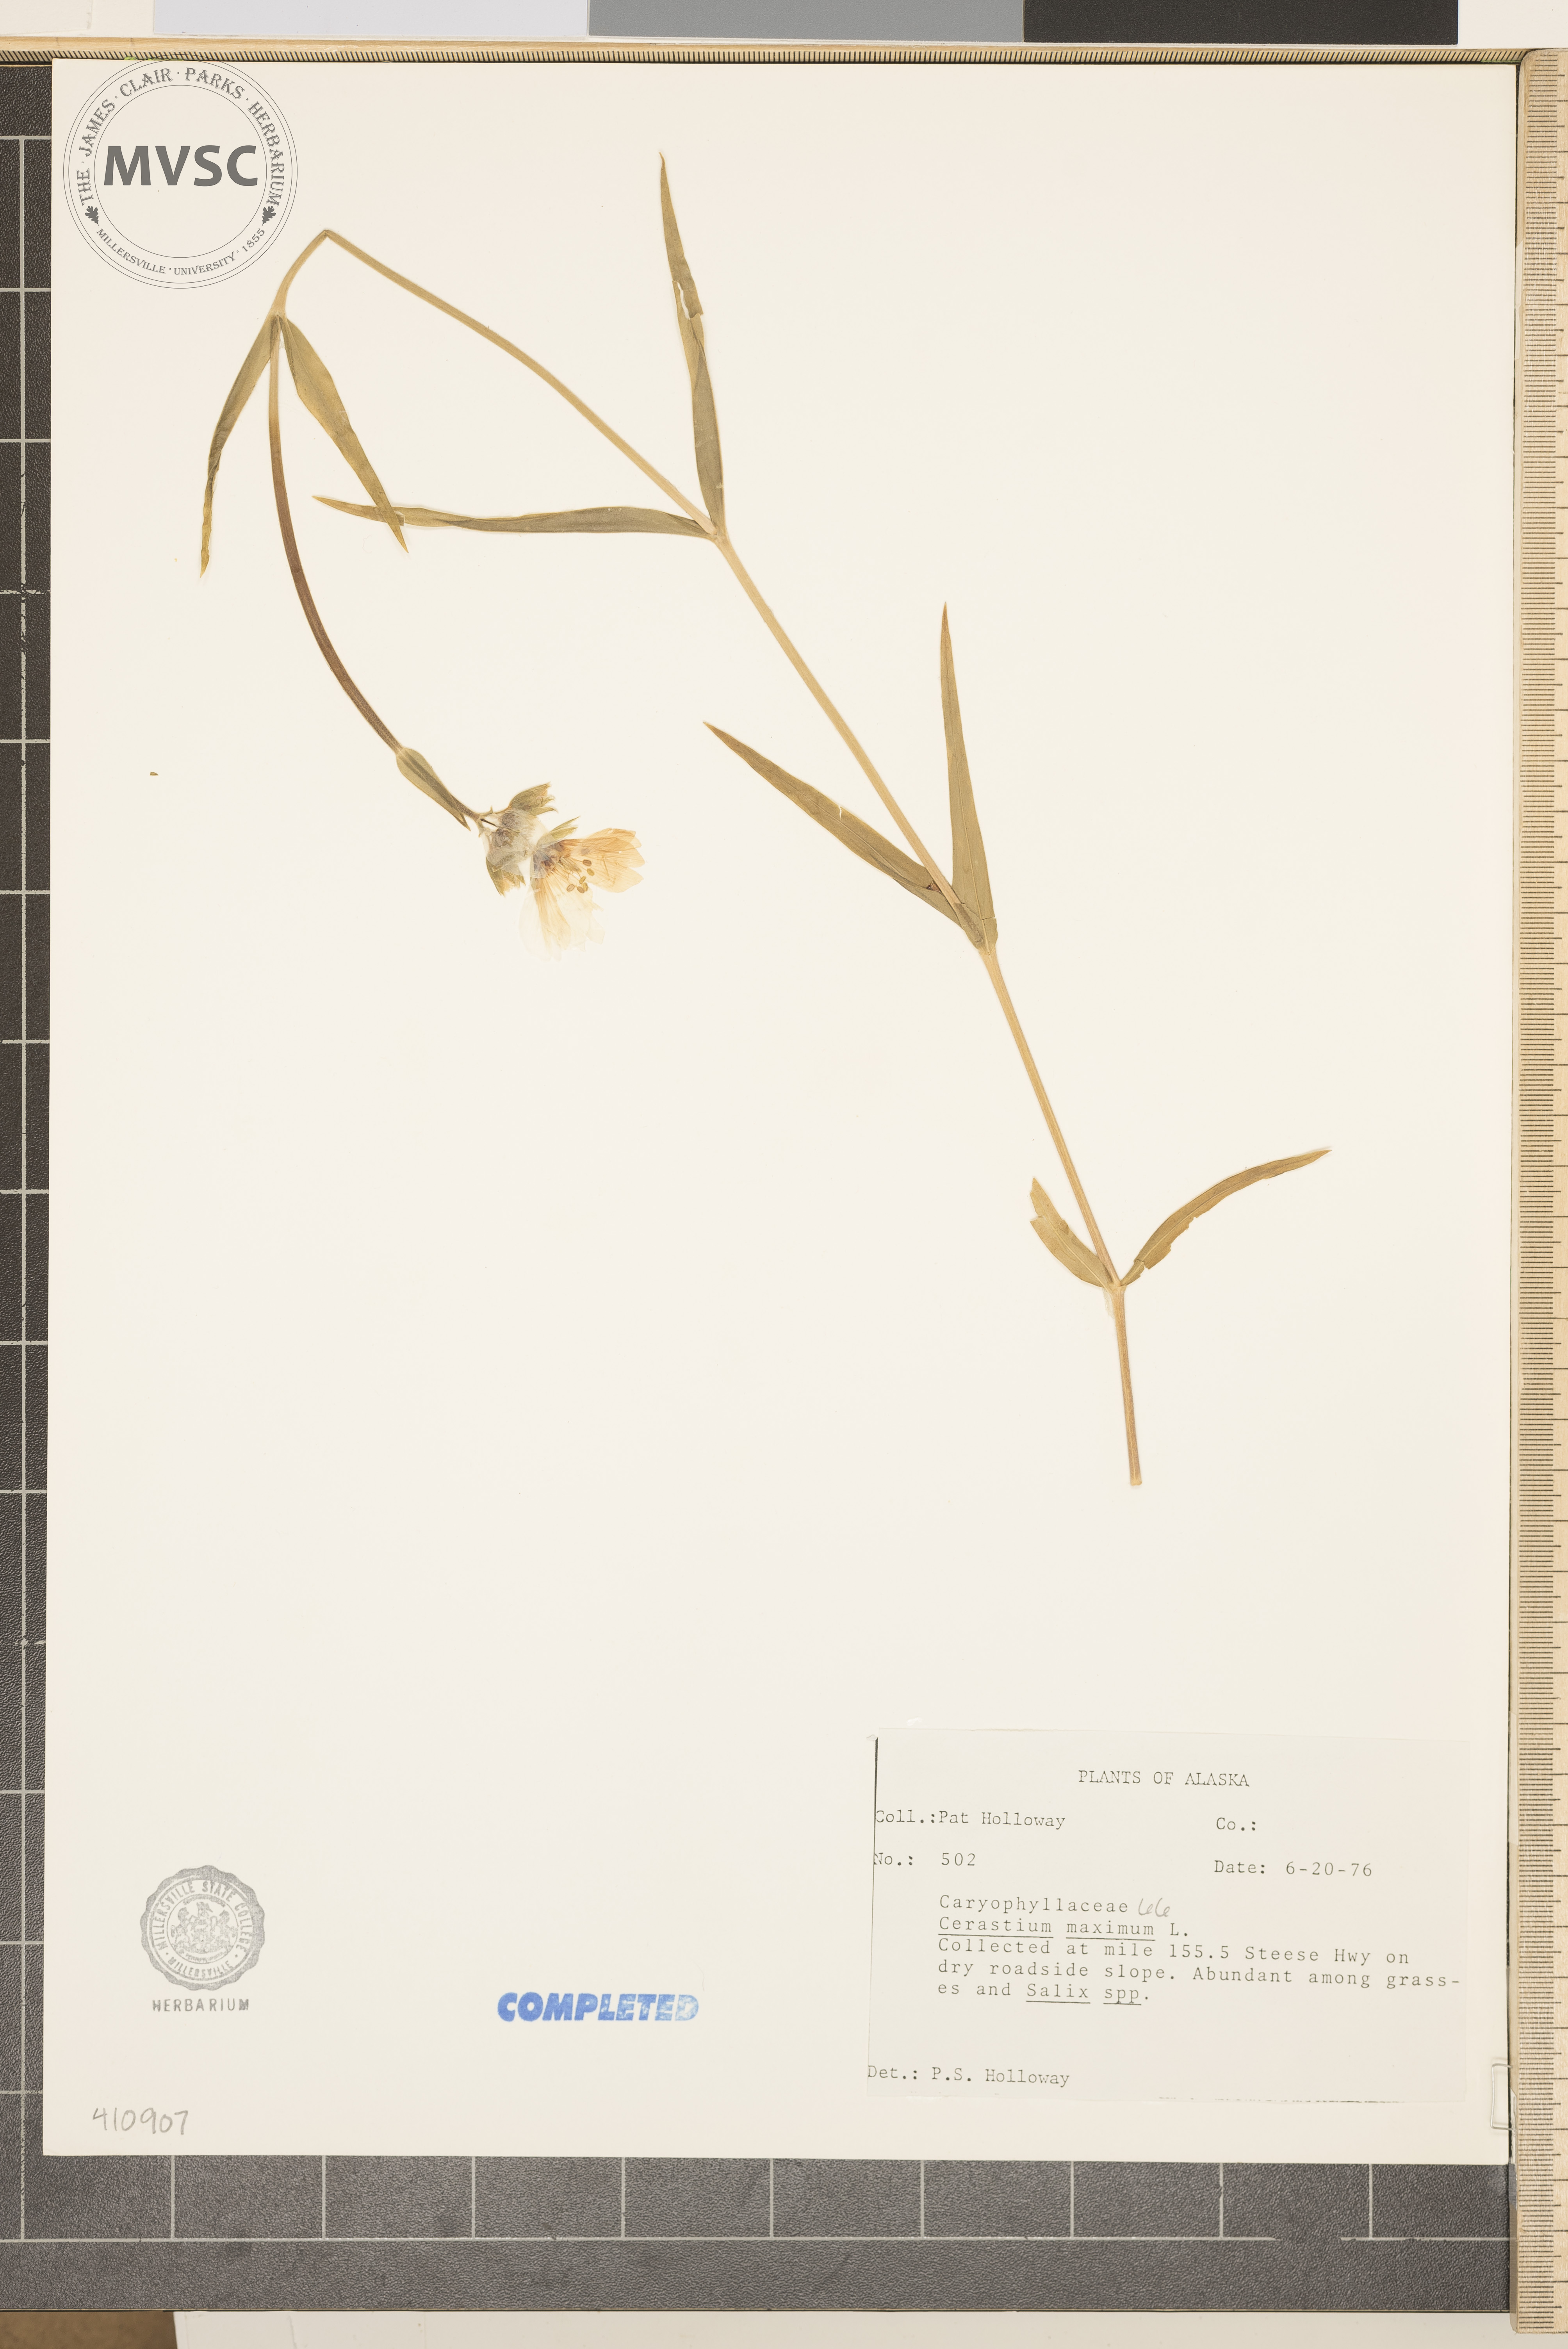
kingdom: Plantae
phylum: Tracheophyta
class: Magnoliopsida
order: Caryophyllales
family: Caryophyllaceae
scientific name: Caryophyllaceae
